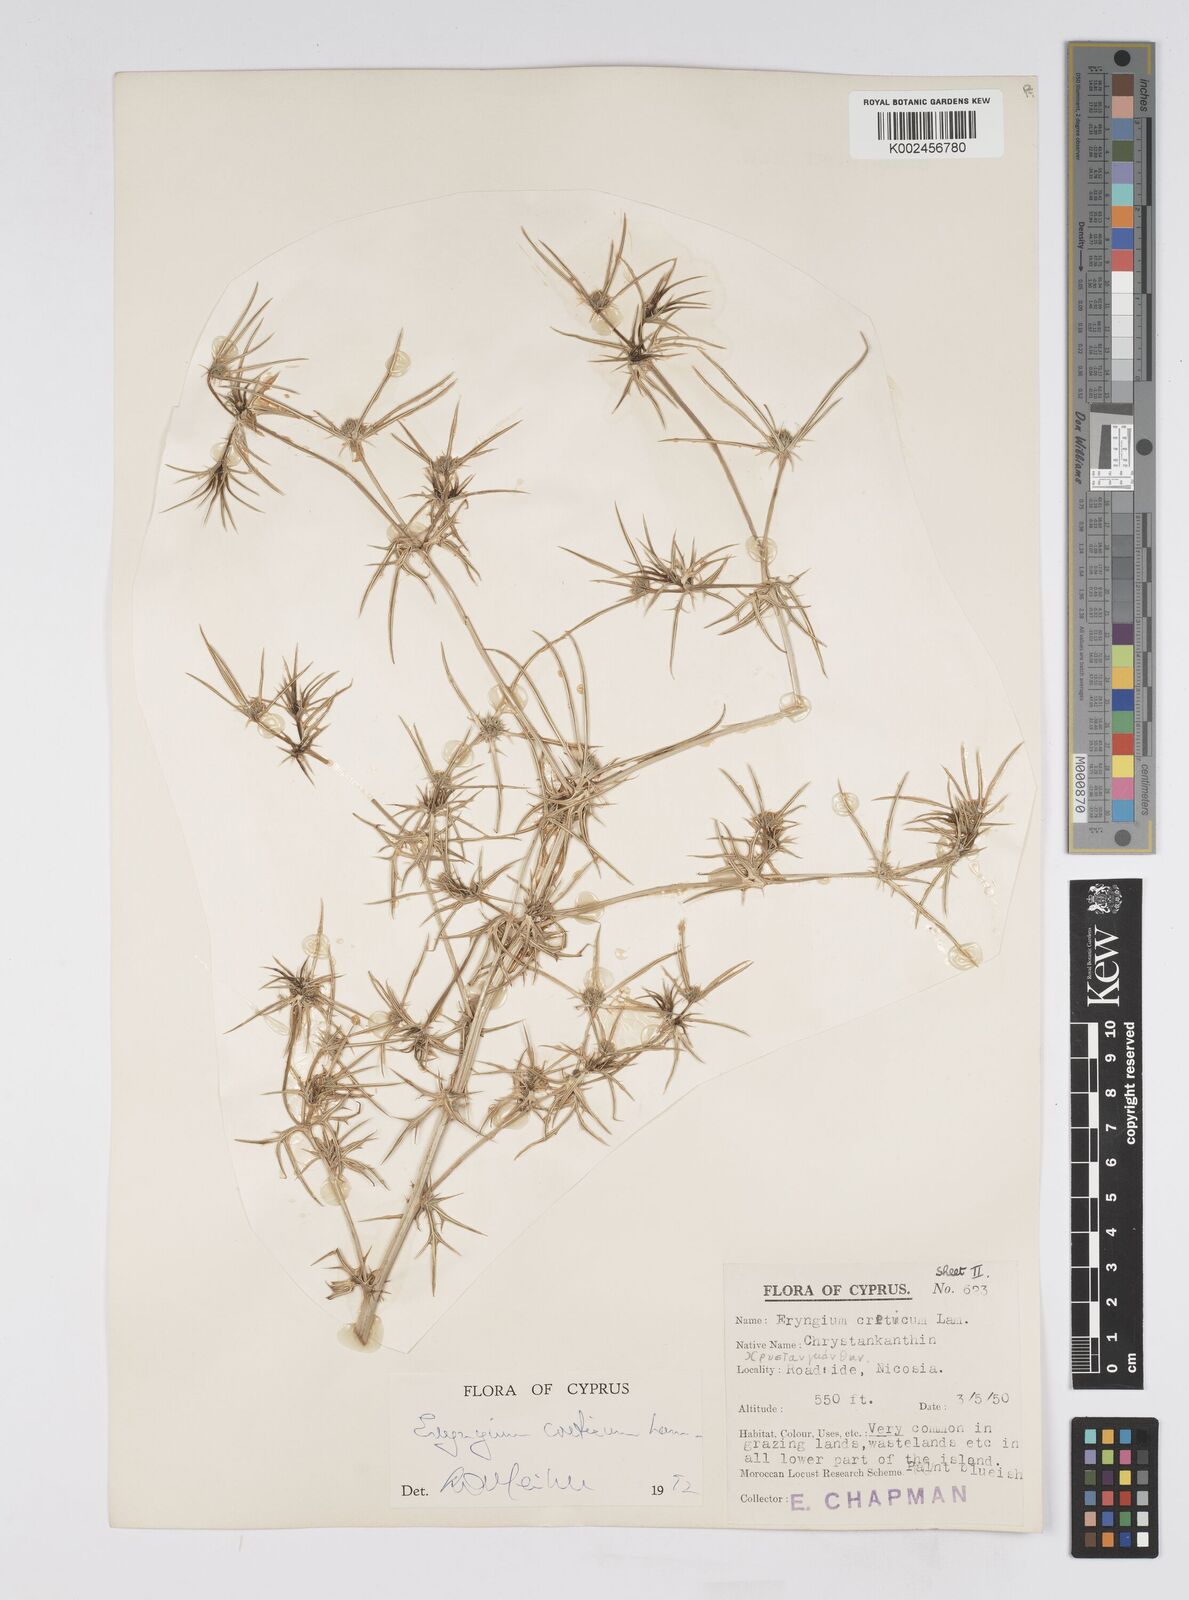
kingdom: Plantae
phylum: Tracheophyta
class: Magnoliopsida
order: Apiales
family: Apiaceae
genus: Eryngium
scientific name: Eryngium creticum
